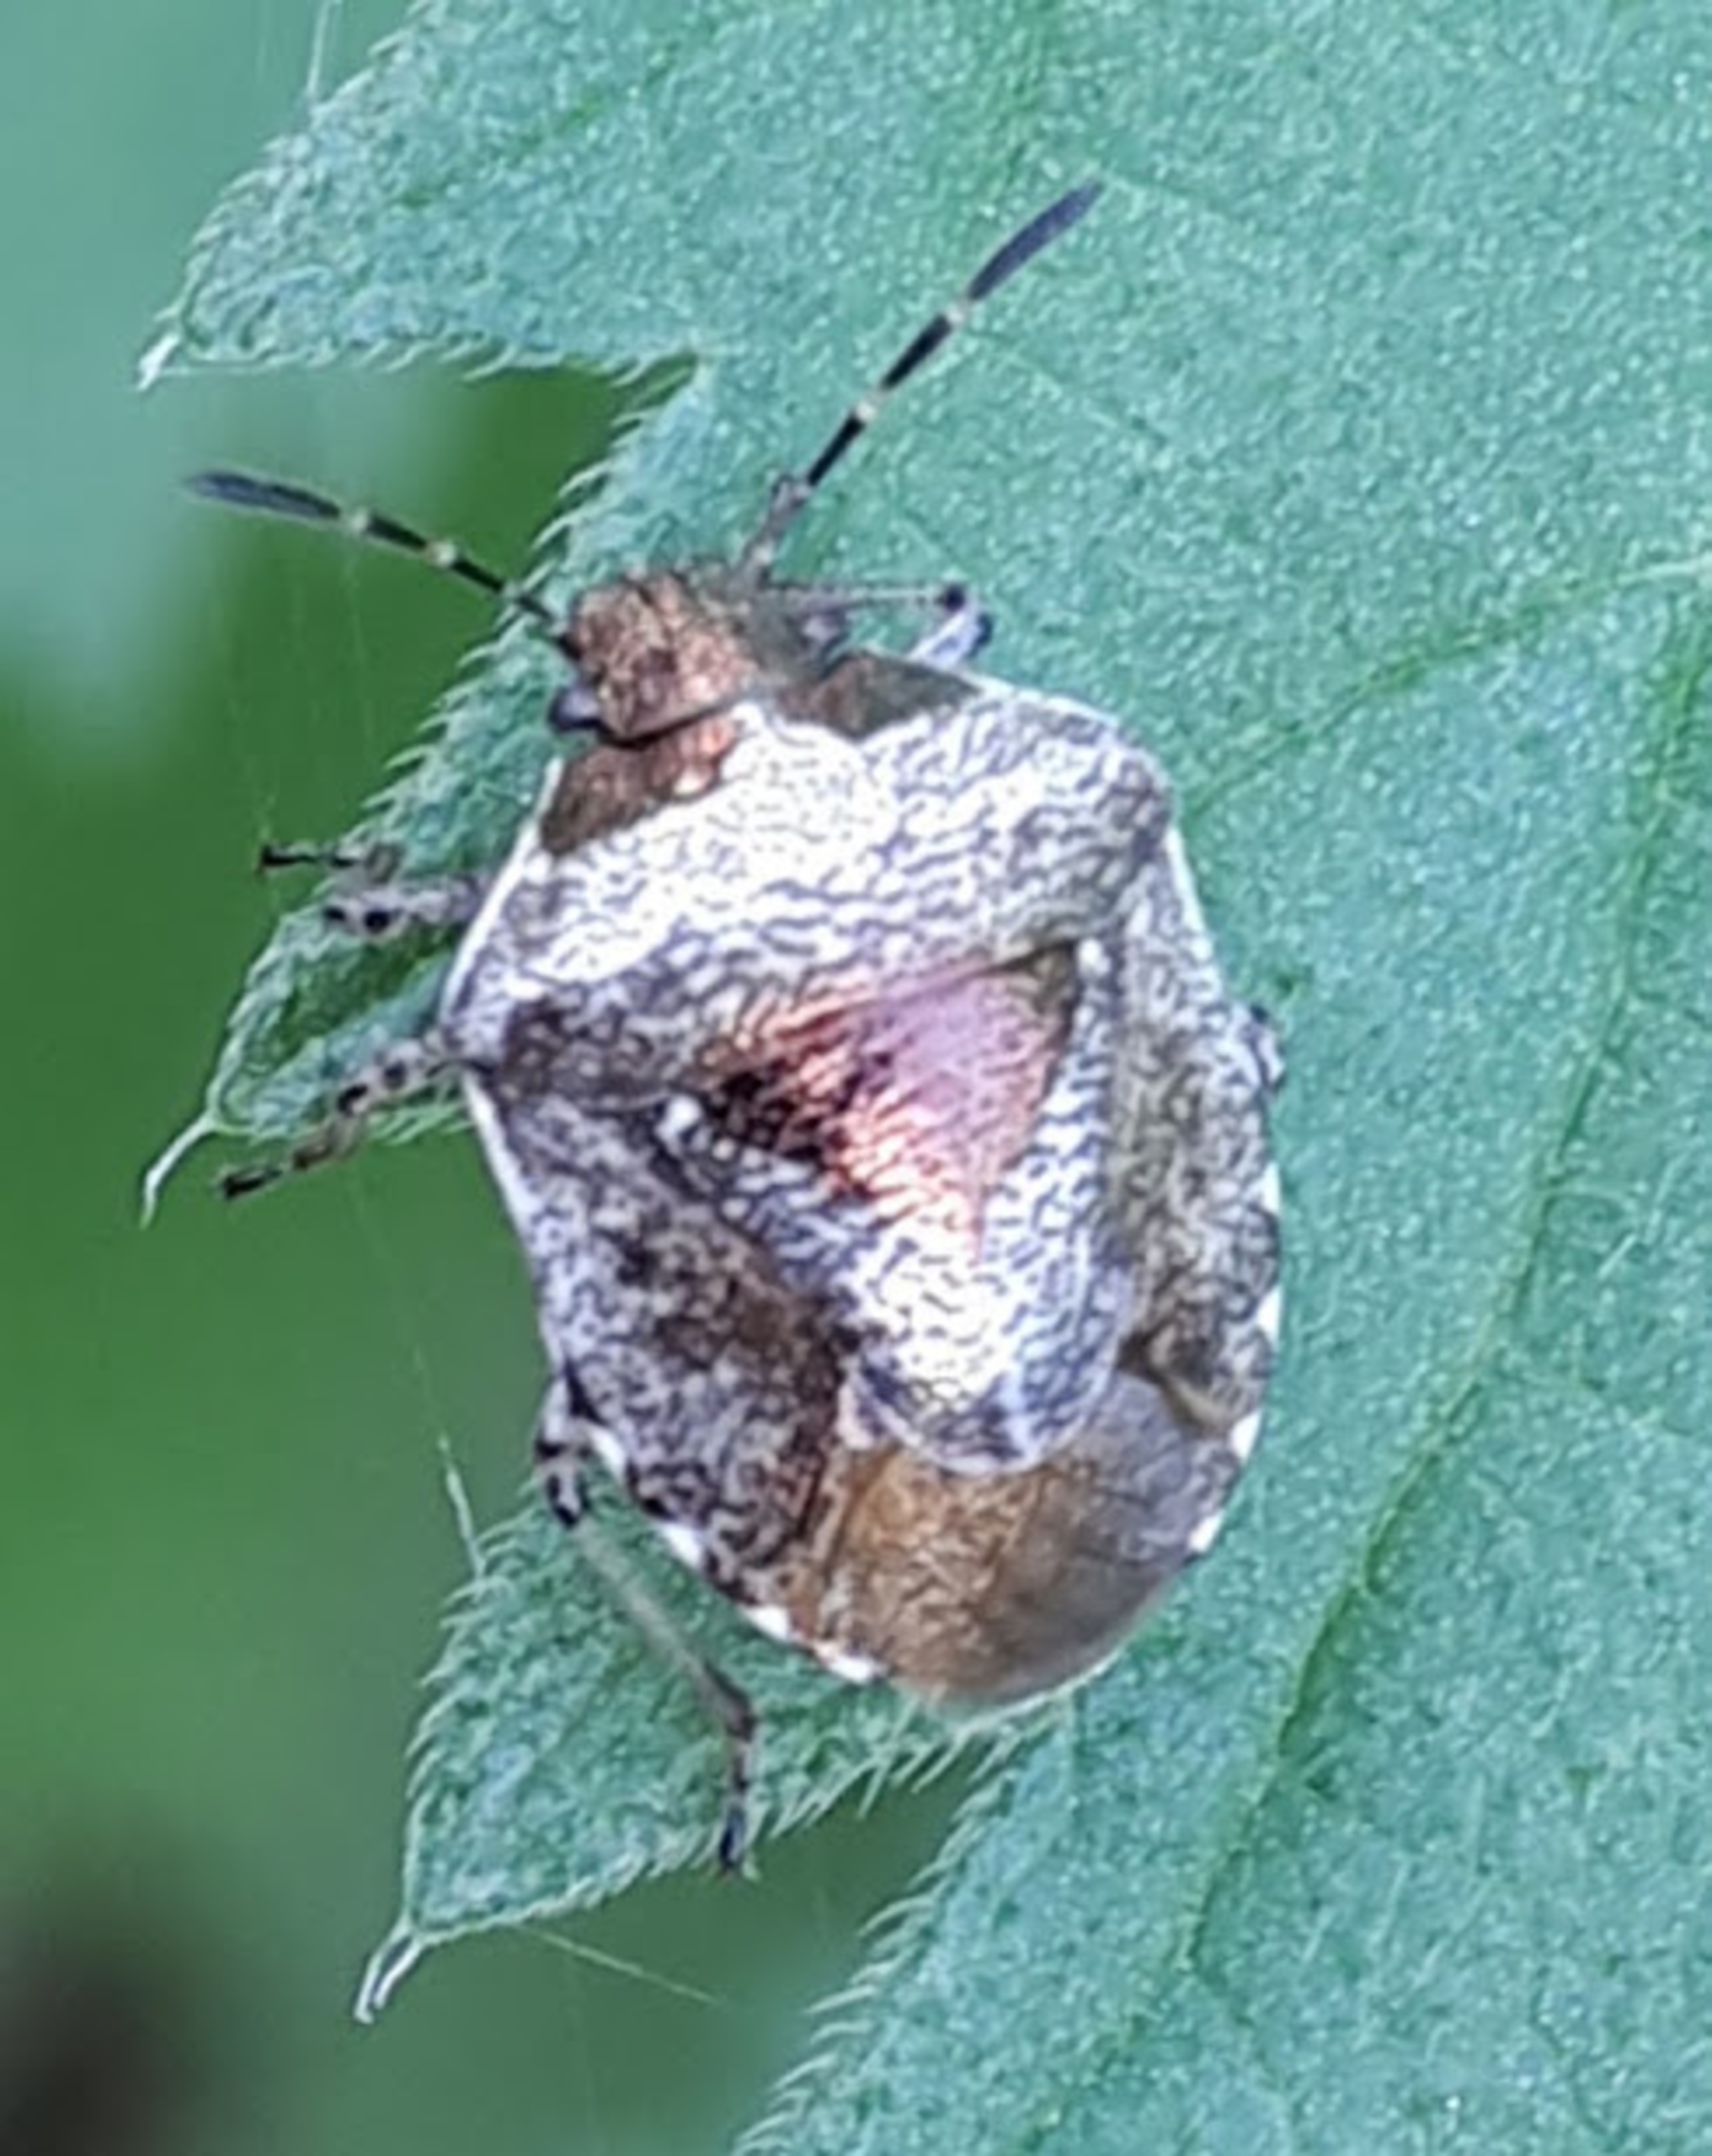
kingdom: Animalia
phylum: Arthropoda
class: Insecta
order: Hemiptera
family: Pentatomidae
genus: Eysarcoris
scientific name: Eysarcoris venustissimus
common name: Gylden urtetæge
